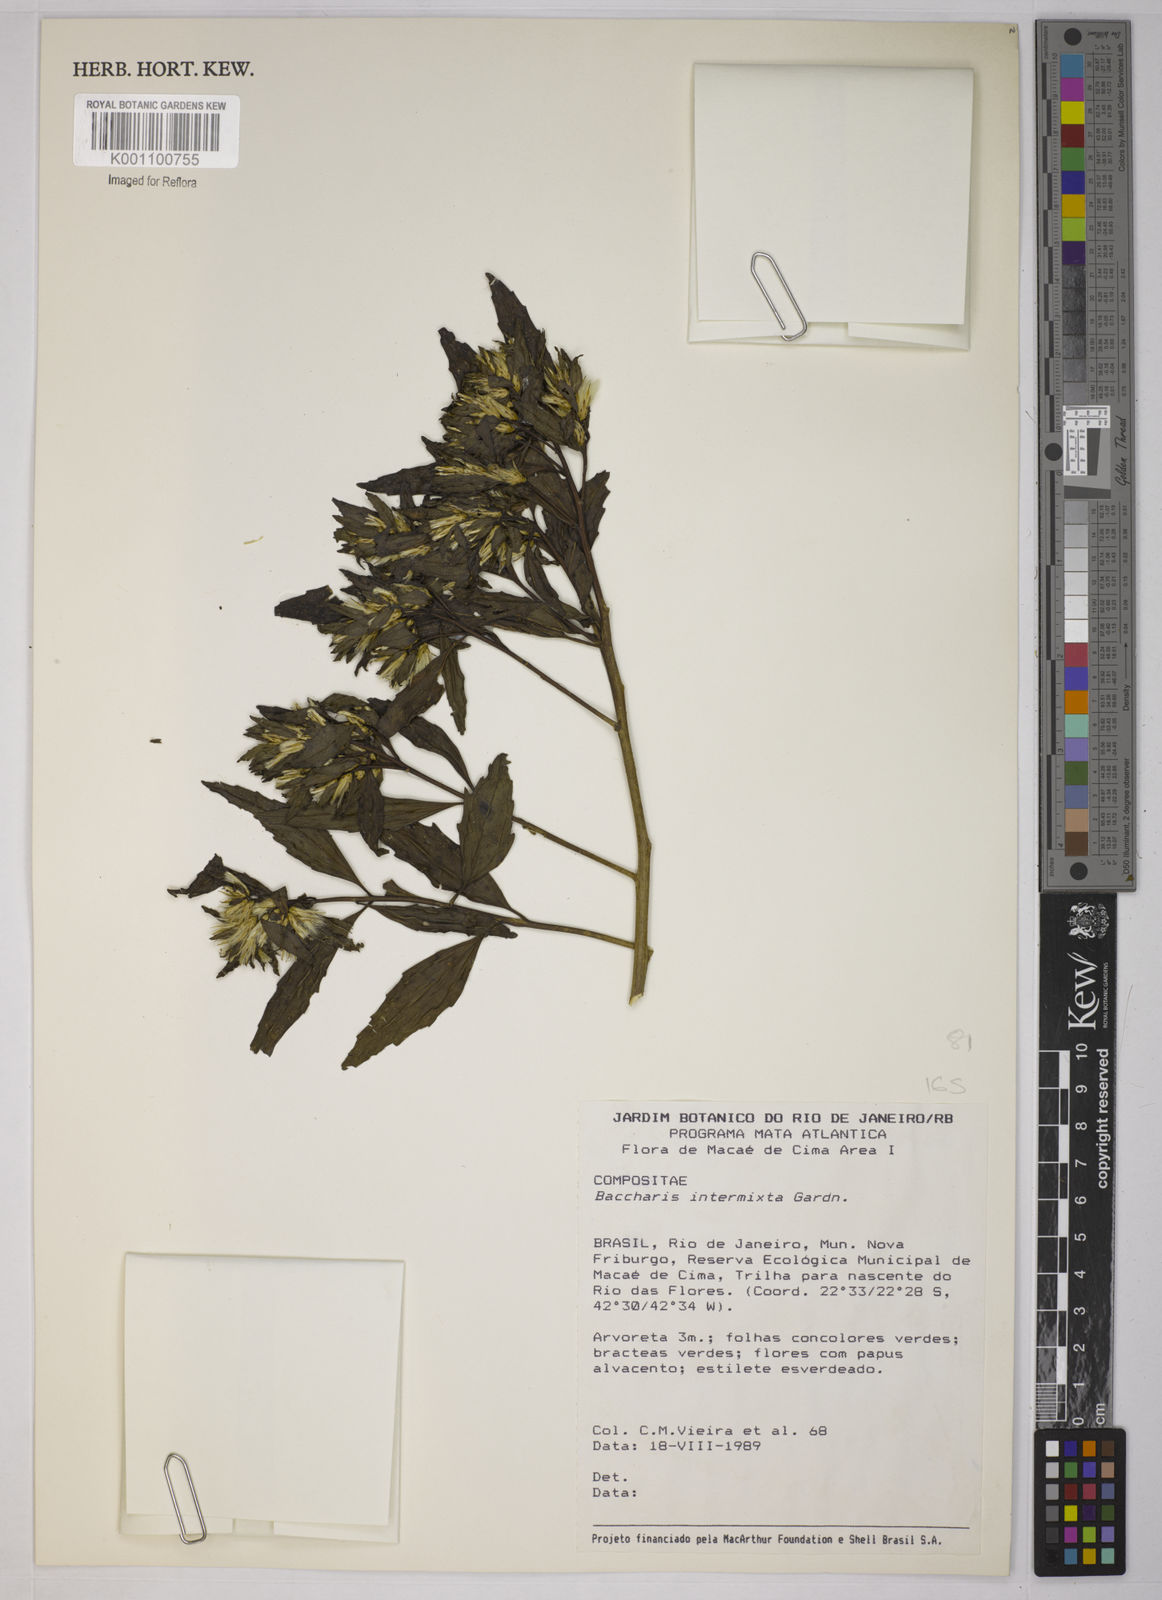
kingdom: Plantae
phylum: Tracheophyta
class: Magnoliopsida
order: Asterales
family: Asteraceae
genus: Baccharis
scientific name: Baccharis intermixta
